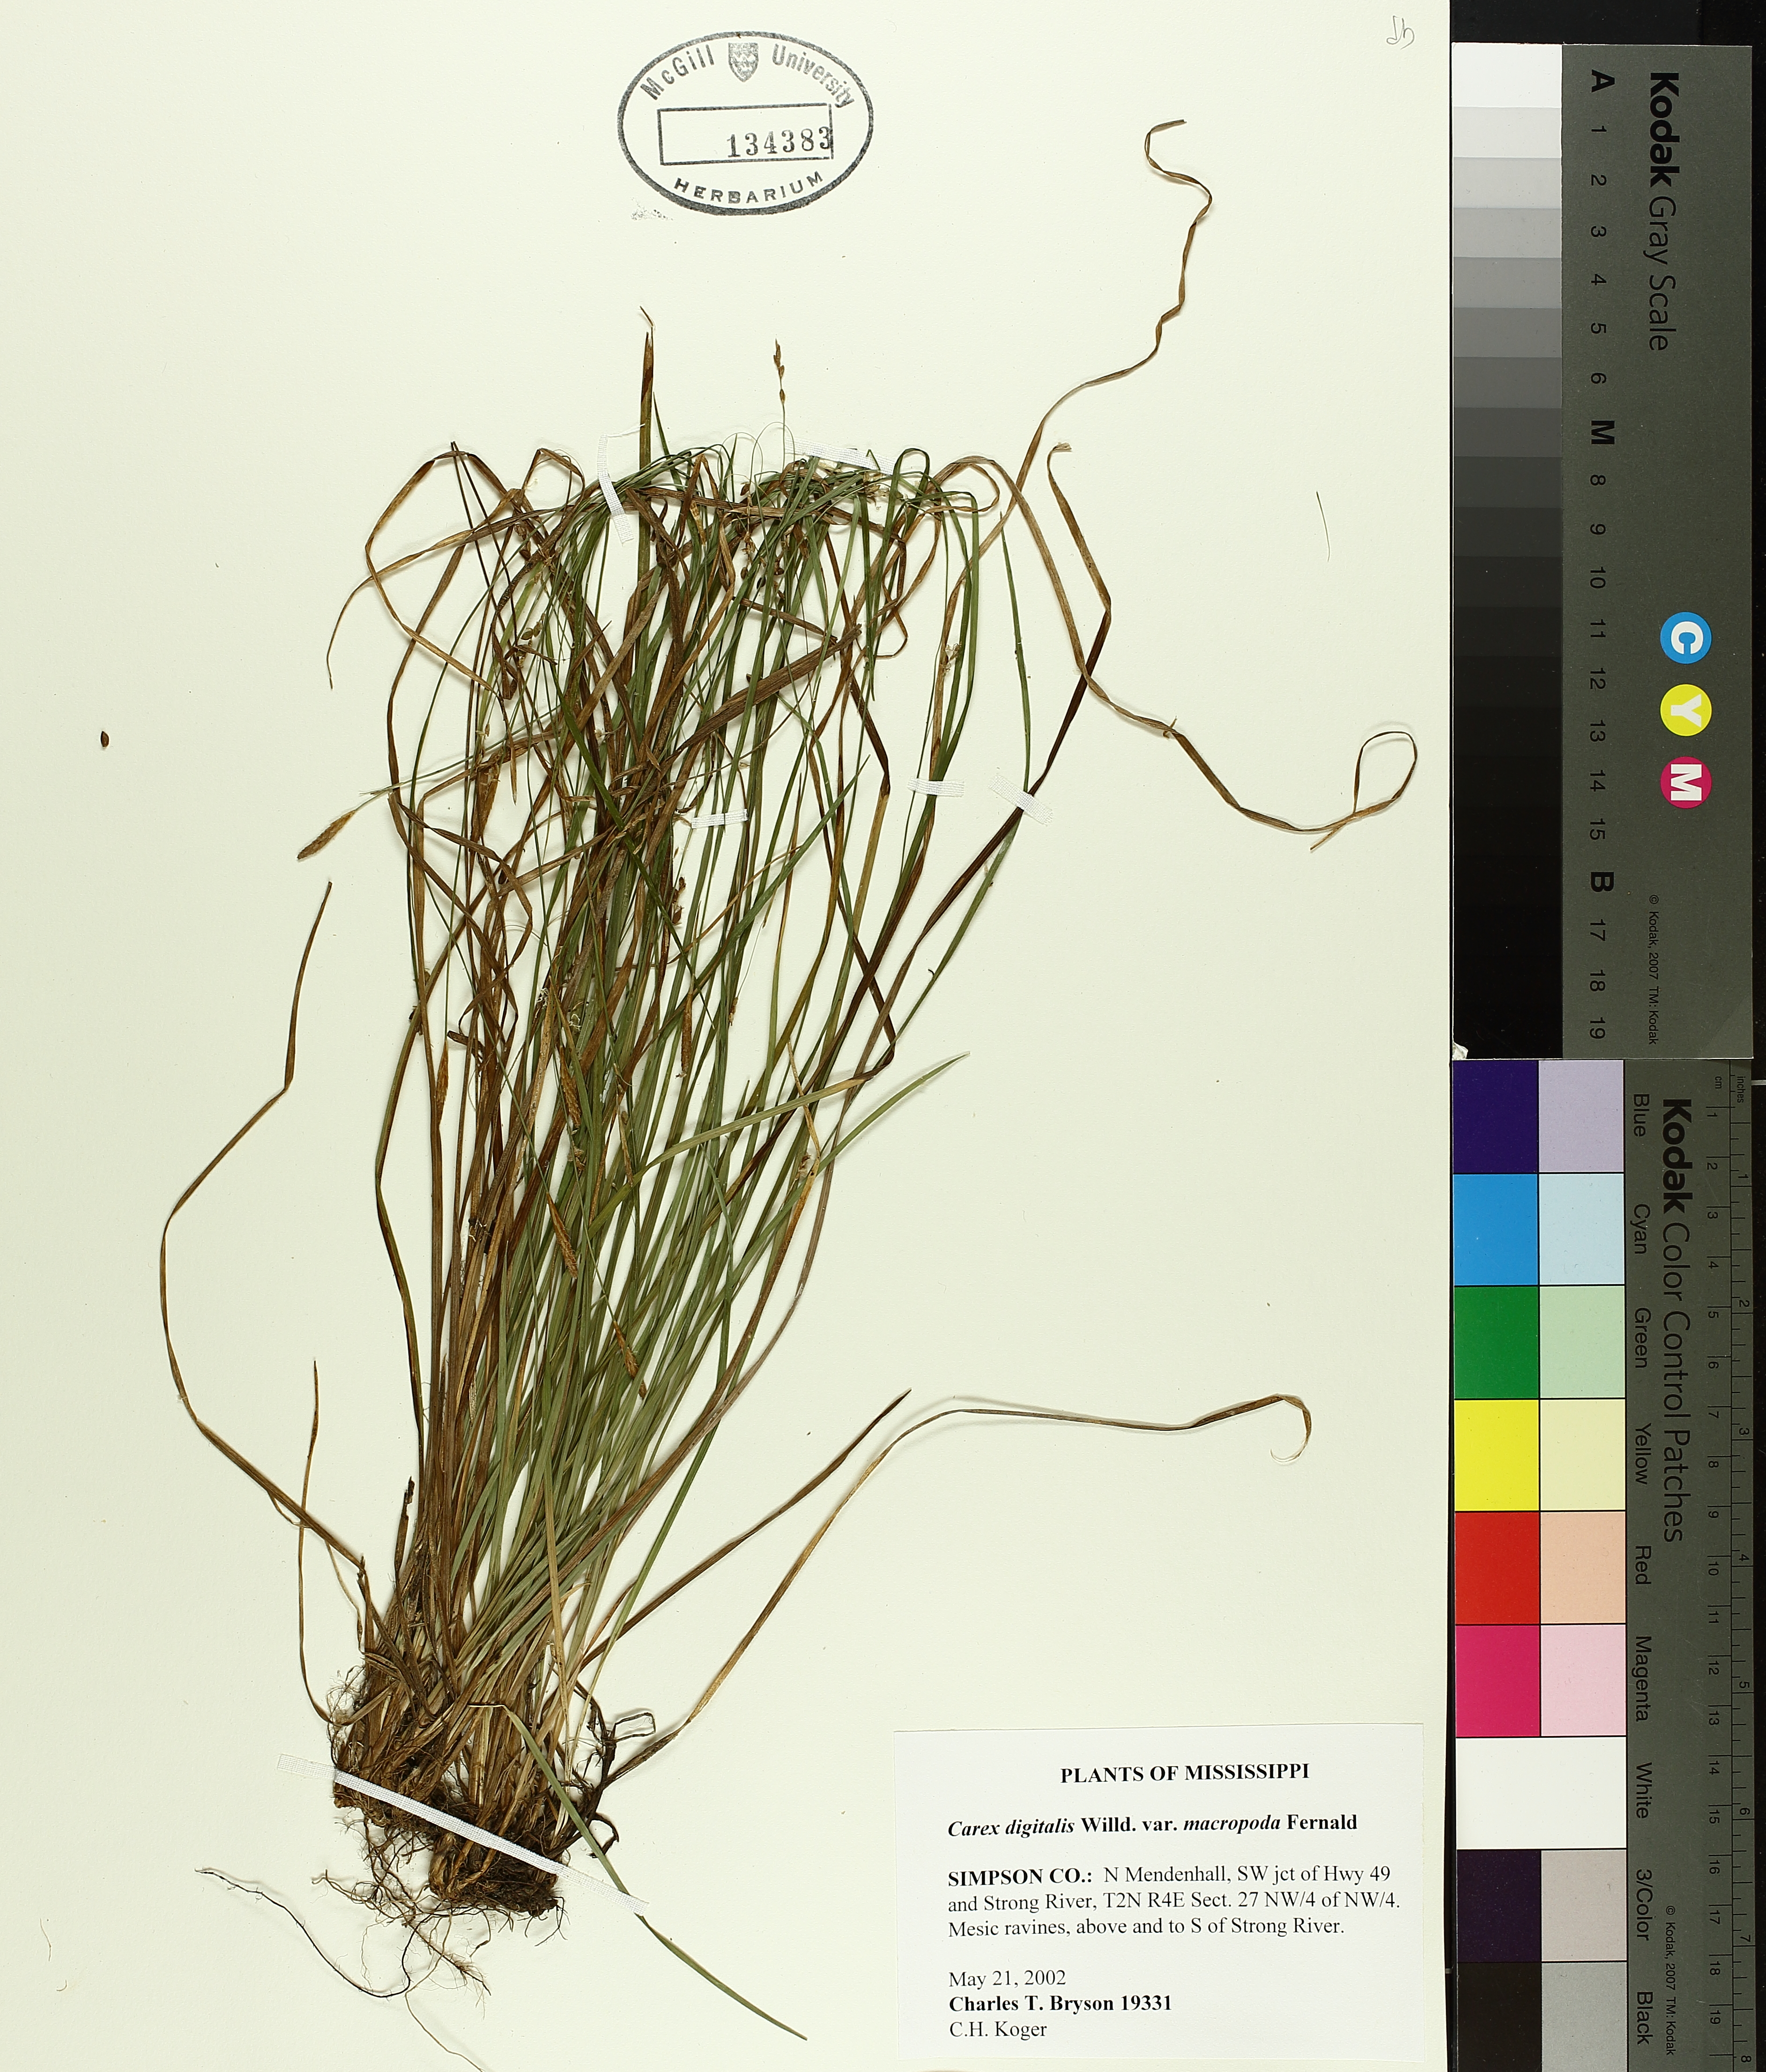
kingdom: Plantae
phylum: Tracheophyta
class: Liliopsida
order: Poales
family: Cyperaceae
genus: Carex
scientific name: Carex digitalis
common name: Slender wood sedge
